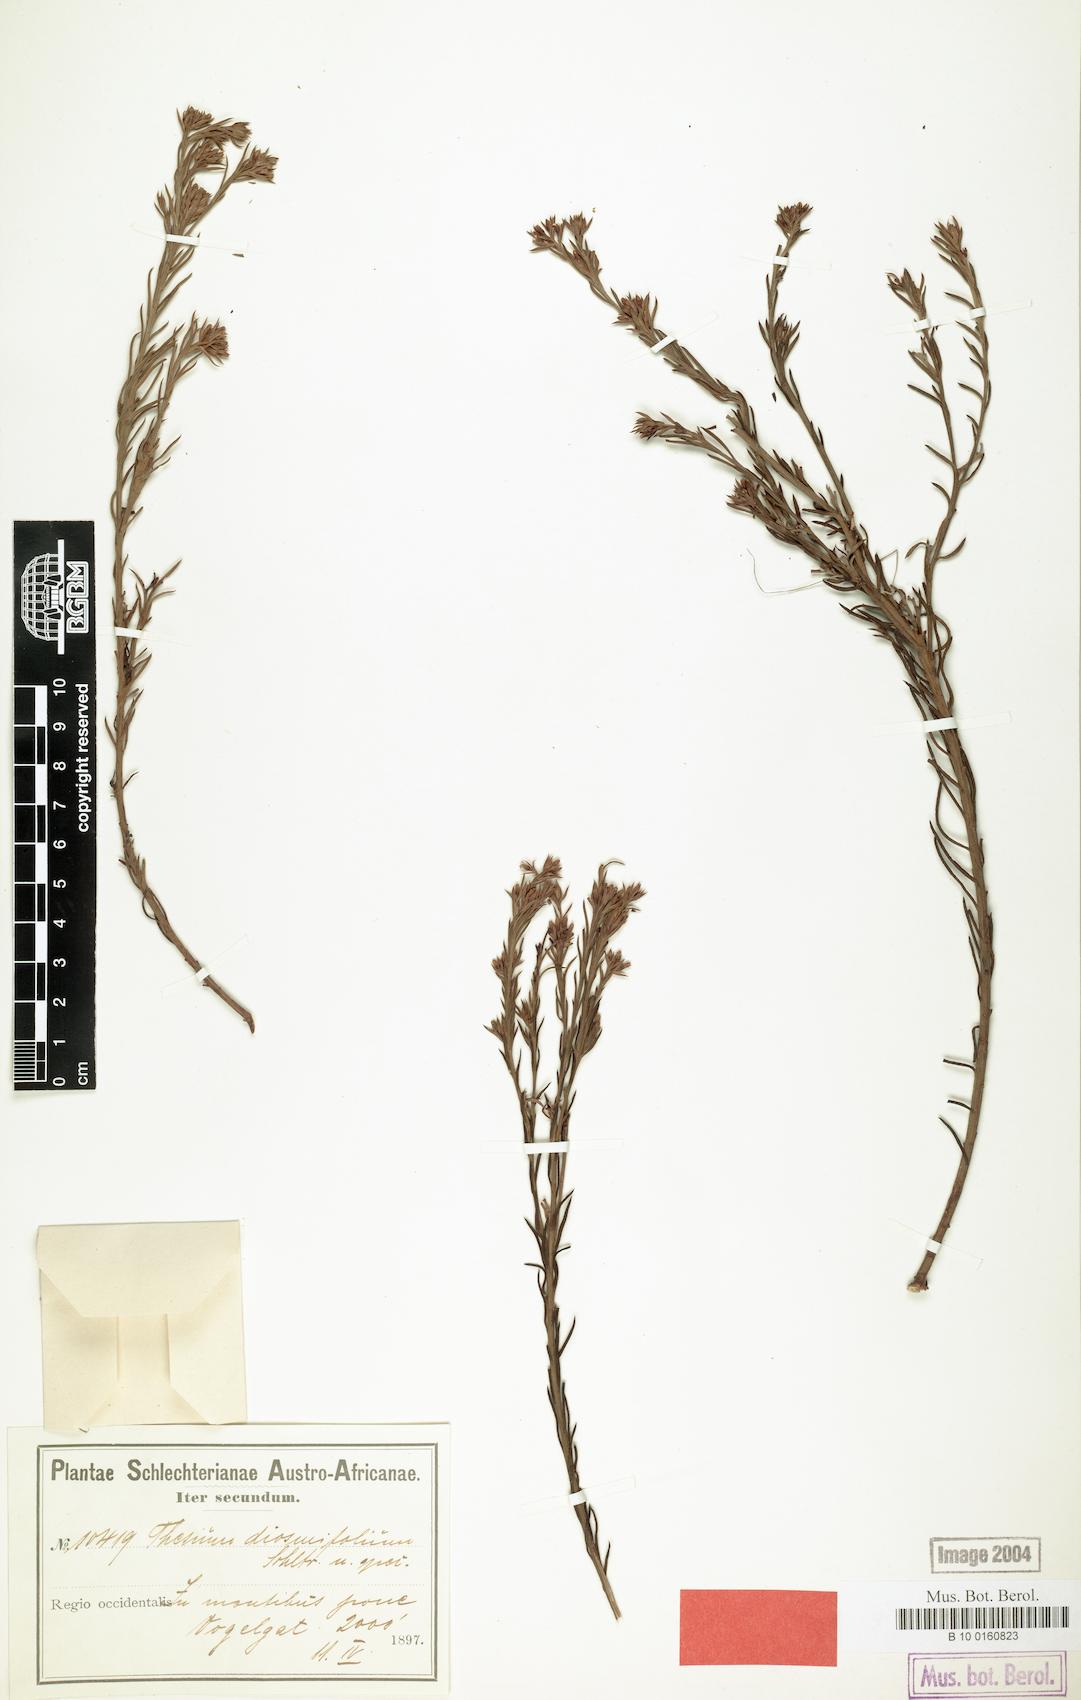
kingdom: Plantae
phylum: Tracheophyta
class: Magnoliopsida
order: Santalales
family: Thesiaceae
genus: Thesium
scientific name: Thesium carinatum
